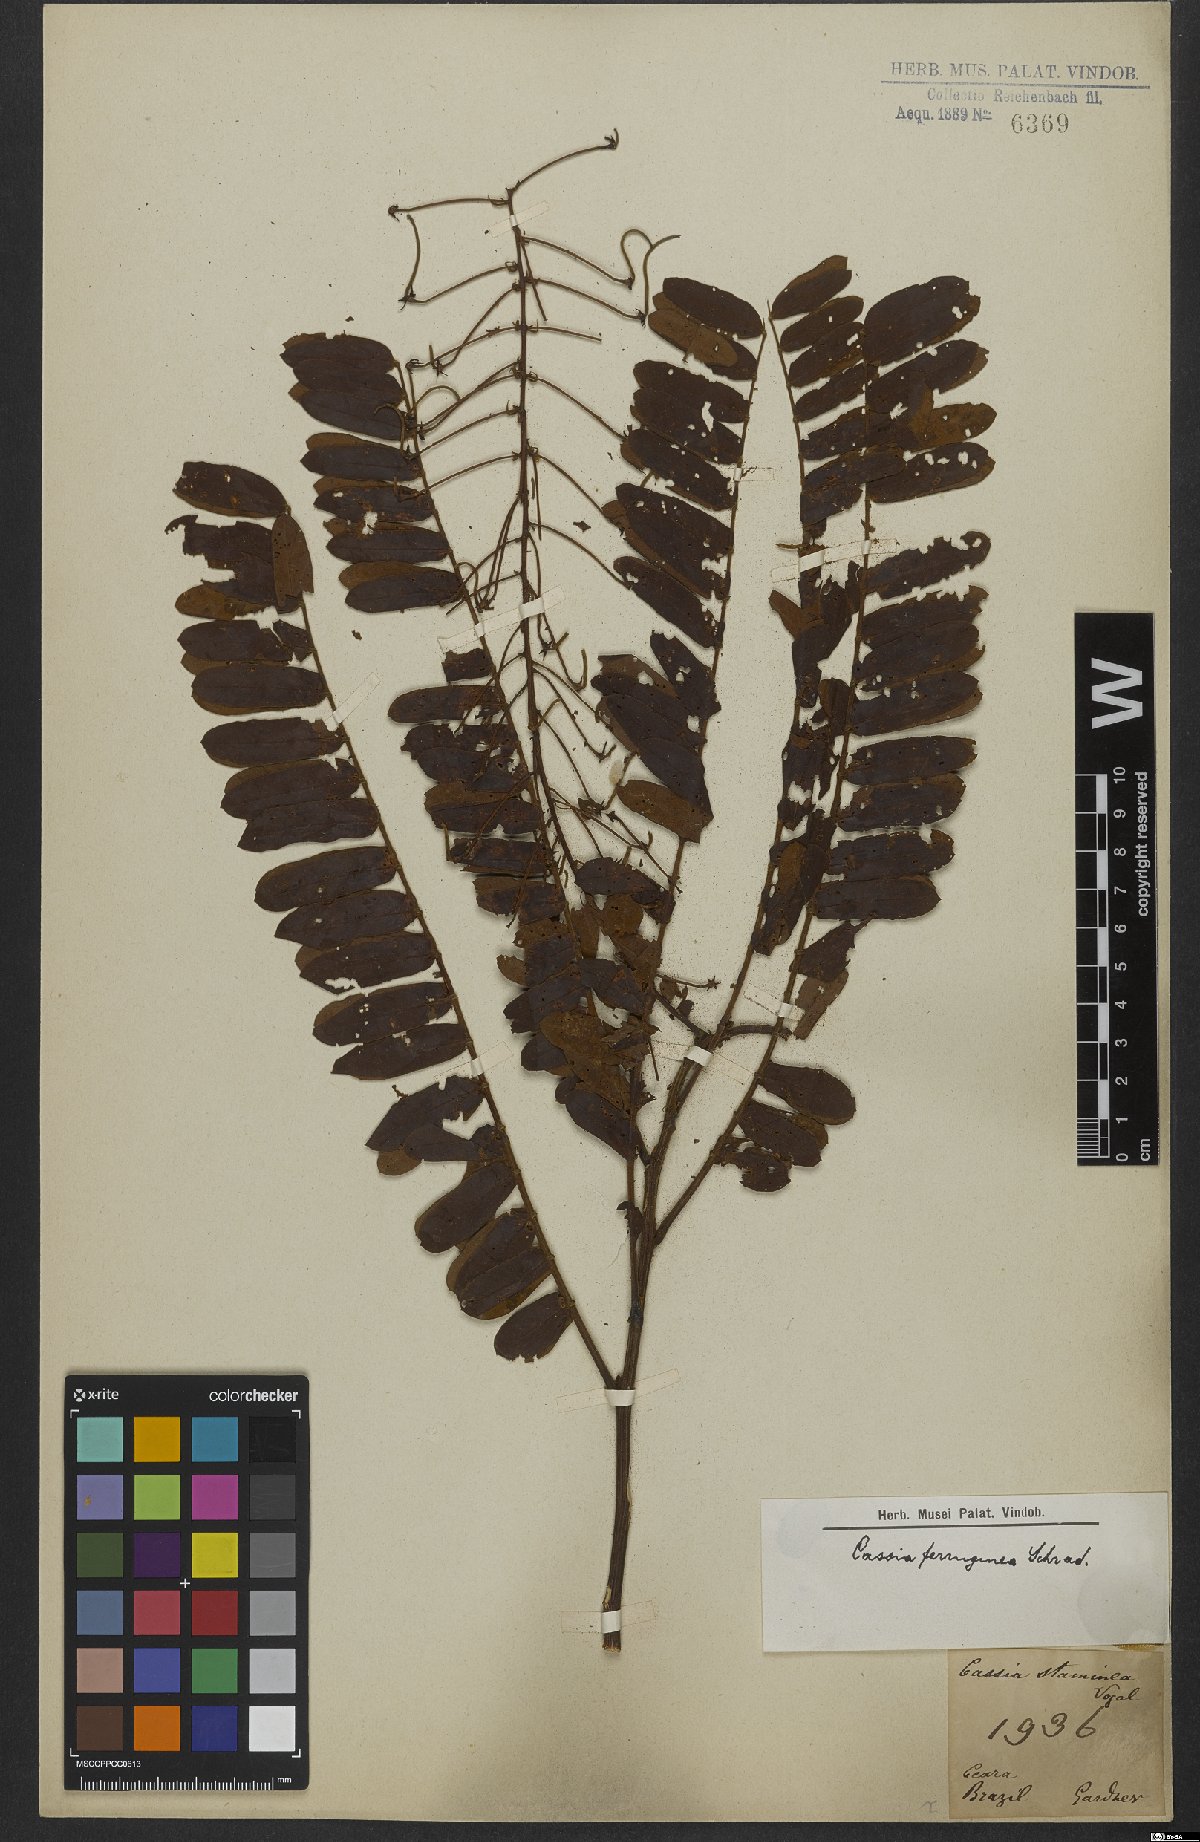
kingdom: Plantae
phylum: Tracheophyta
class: Magnoliopsida
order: Fabales
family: Fabaceae
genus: Cassia
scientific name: Cassia ferruginea
